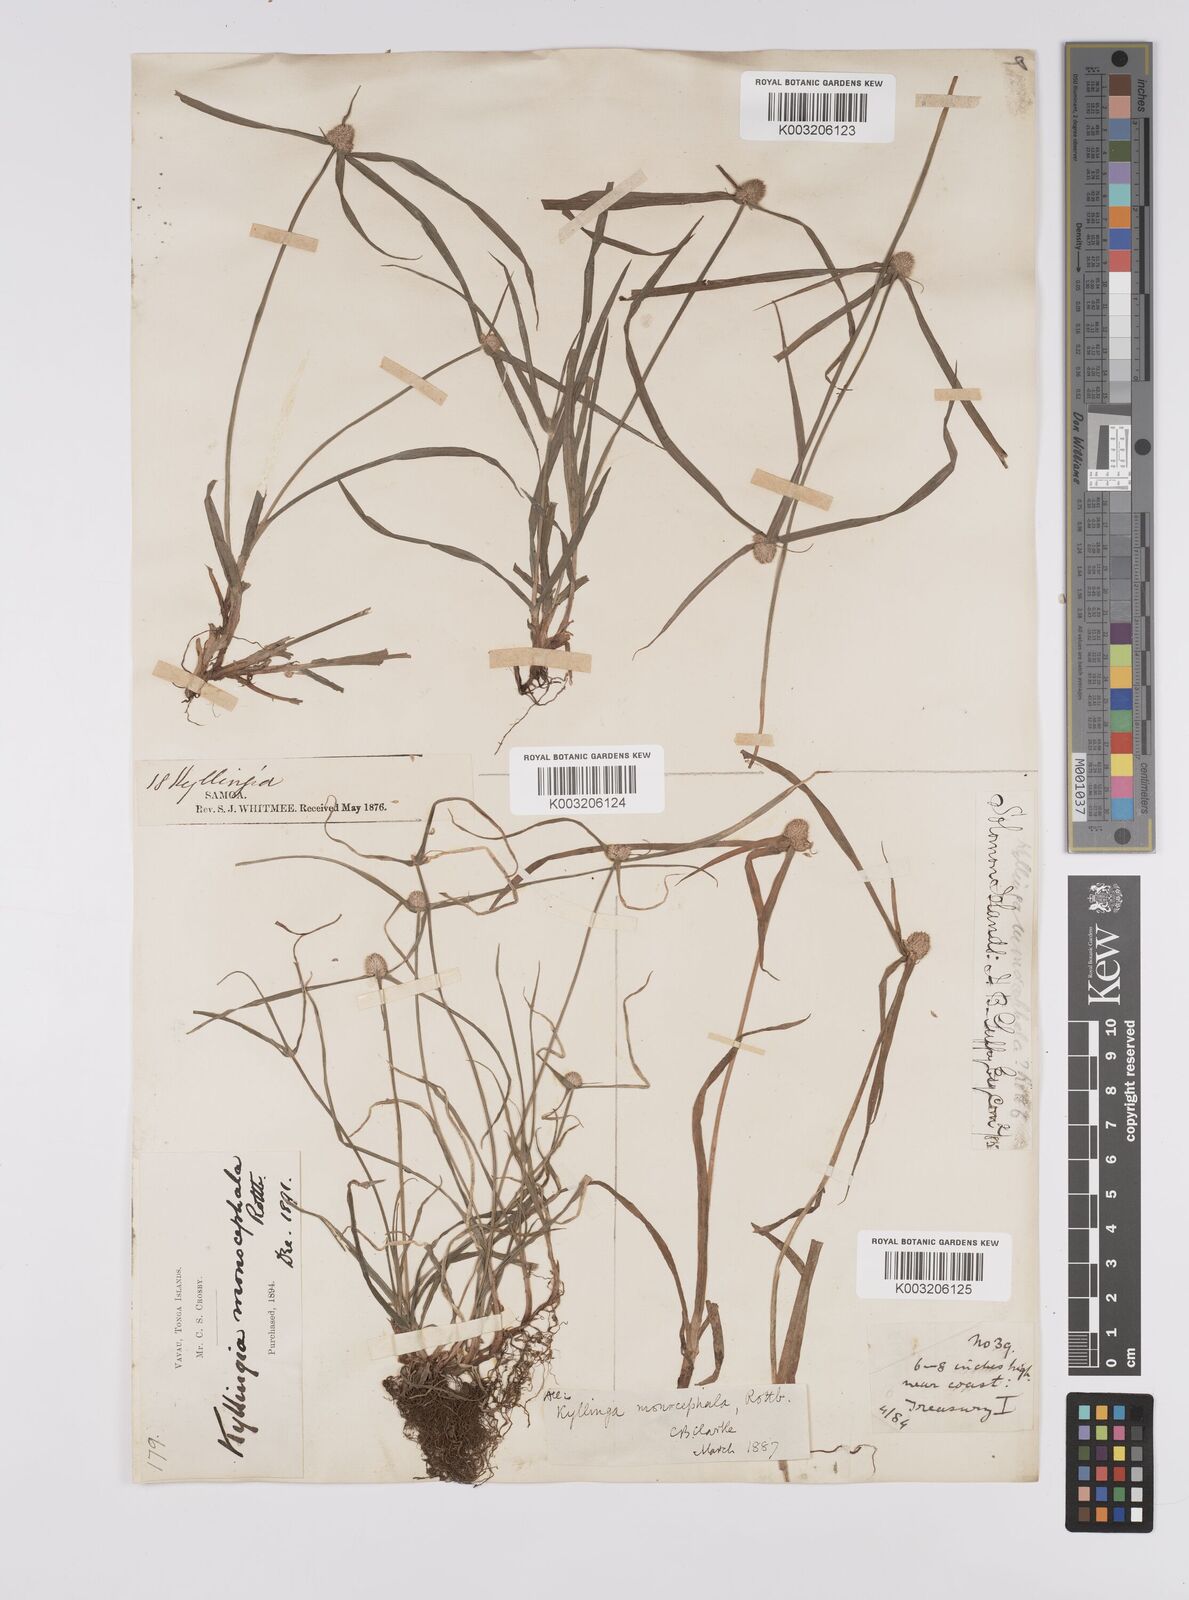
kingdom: Plantae
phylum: Tracheophyta
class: Liliopsida
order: Poales
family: Cyperaceae
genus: Cyperus
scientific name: Cyperus nemoralis
